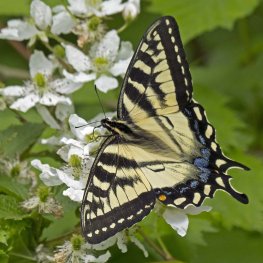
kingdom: Animalia
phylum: Arthropoda
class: Insecta
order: Lepidoptera
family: Papilionidae
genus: Pterourus
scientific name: Pterourus canadensis
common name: Canadian Tiger Swallowtail
